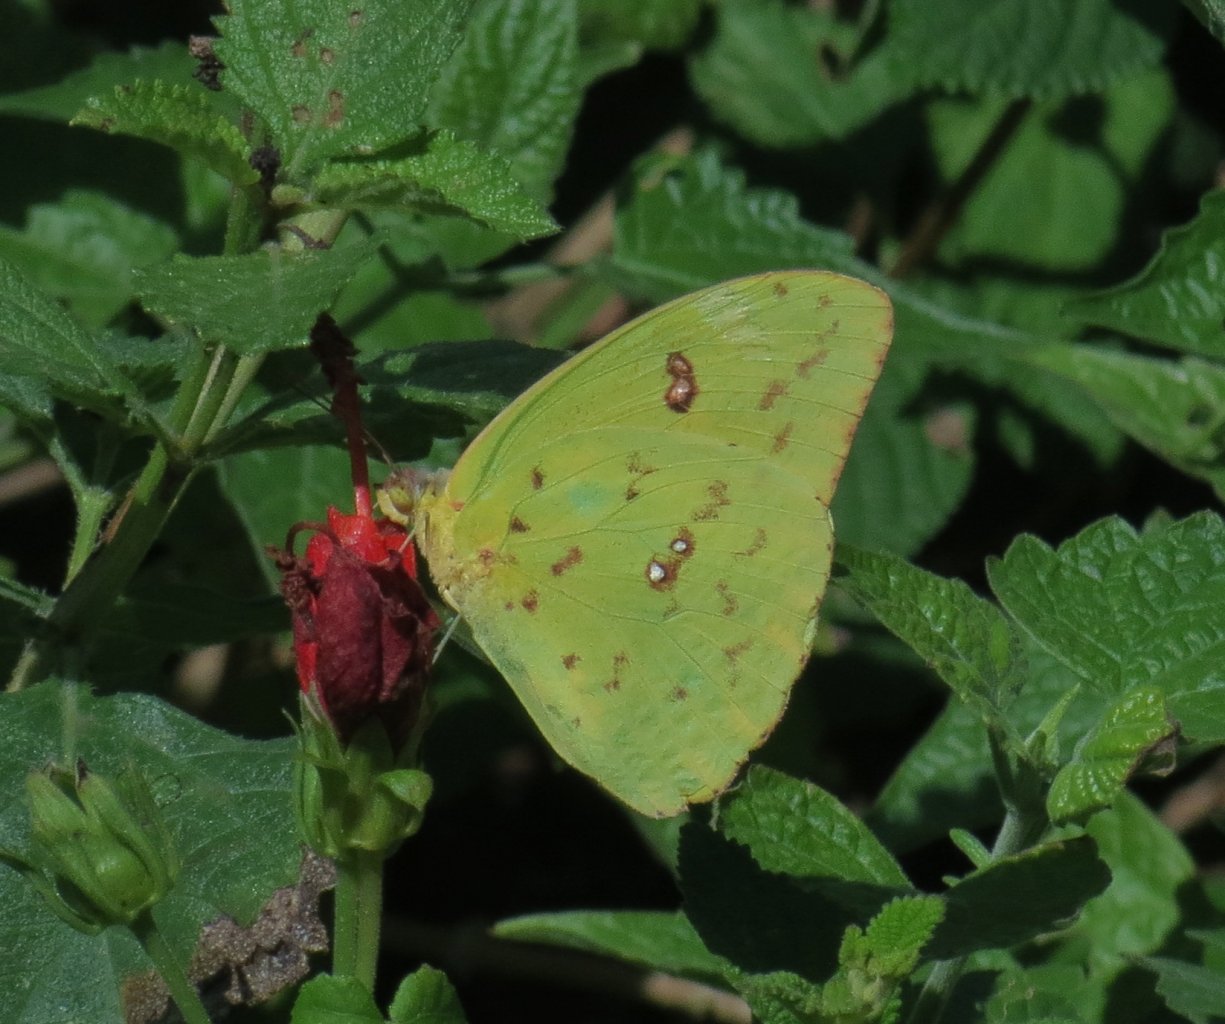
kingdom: Animalia
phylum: Arthropoda
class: Insecta
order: Lepidoptera
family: Pieridae
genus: Phoebis
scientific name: Phoebis sennae
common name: Cloudless Sulphur
